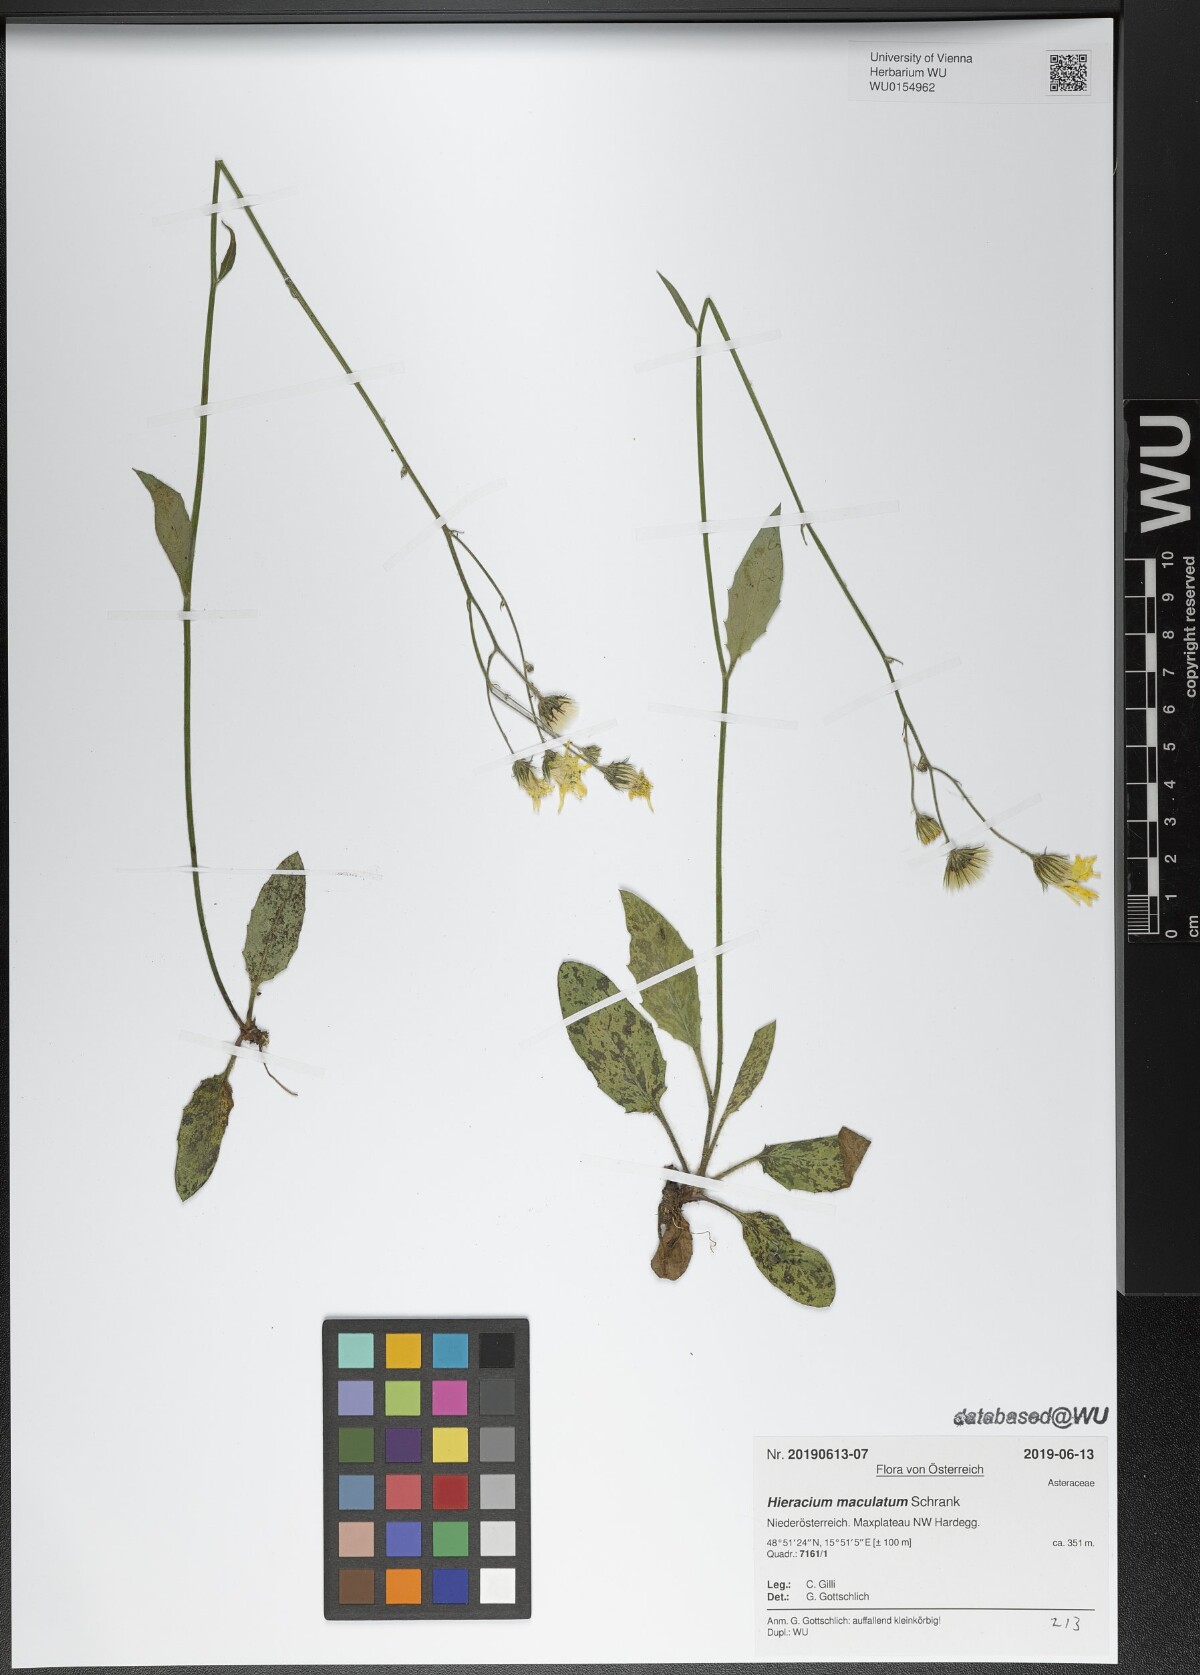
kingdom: Plantae
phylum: Tracheophyta
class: Magnoliopsida
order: Asterales
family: Asteraceae
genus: Hieracium
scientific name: Hieracium maculatum
